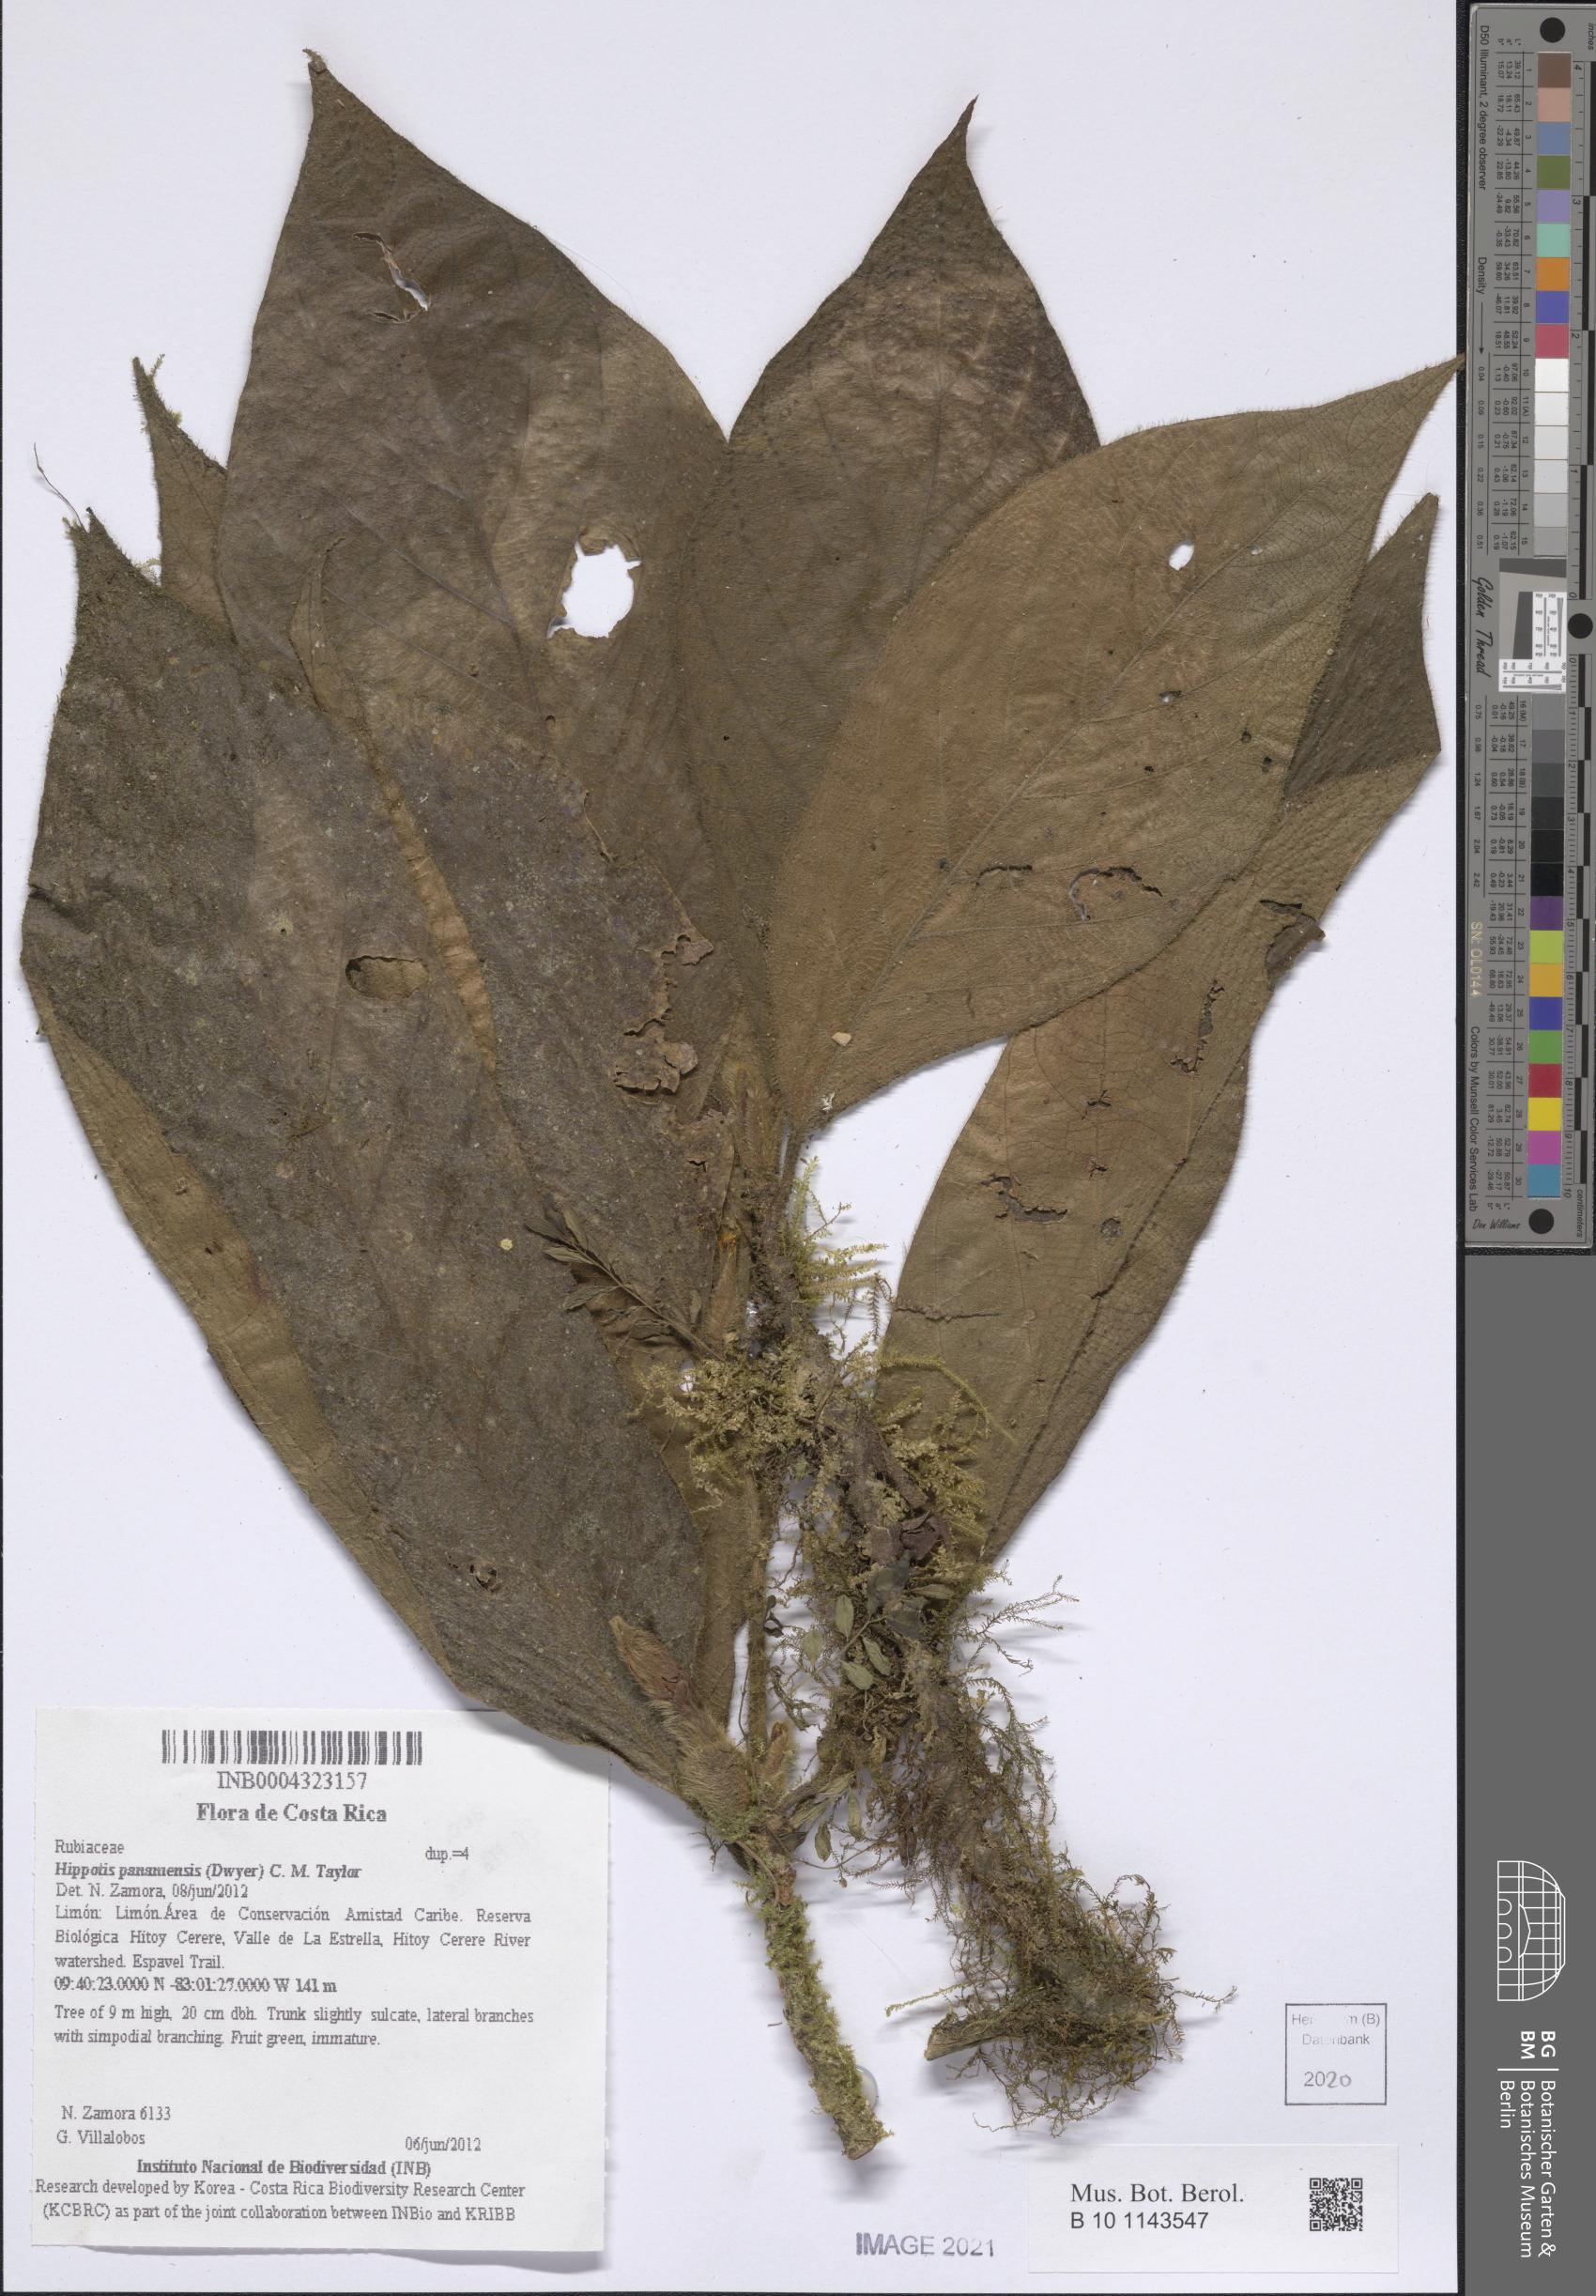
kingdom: Plantae
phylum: Tracheophyta
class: Magnoliopsida
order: Gentianales
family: Rubiaceae
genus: Hippotis
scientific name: Hippotis panamensis
